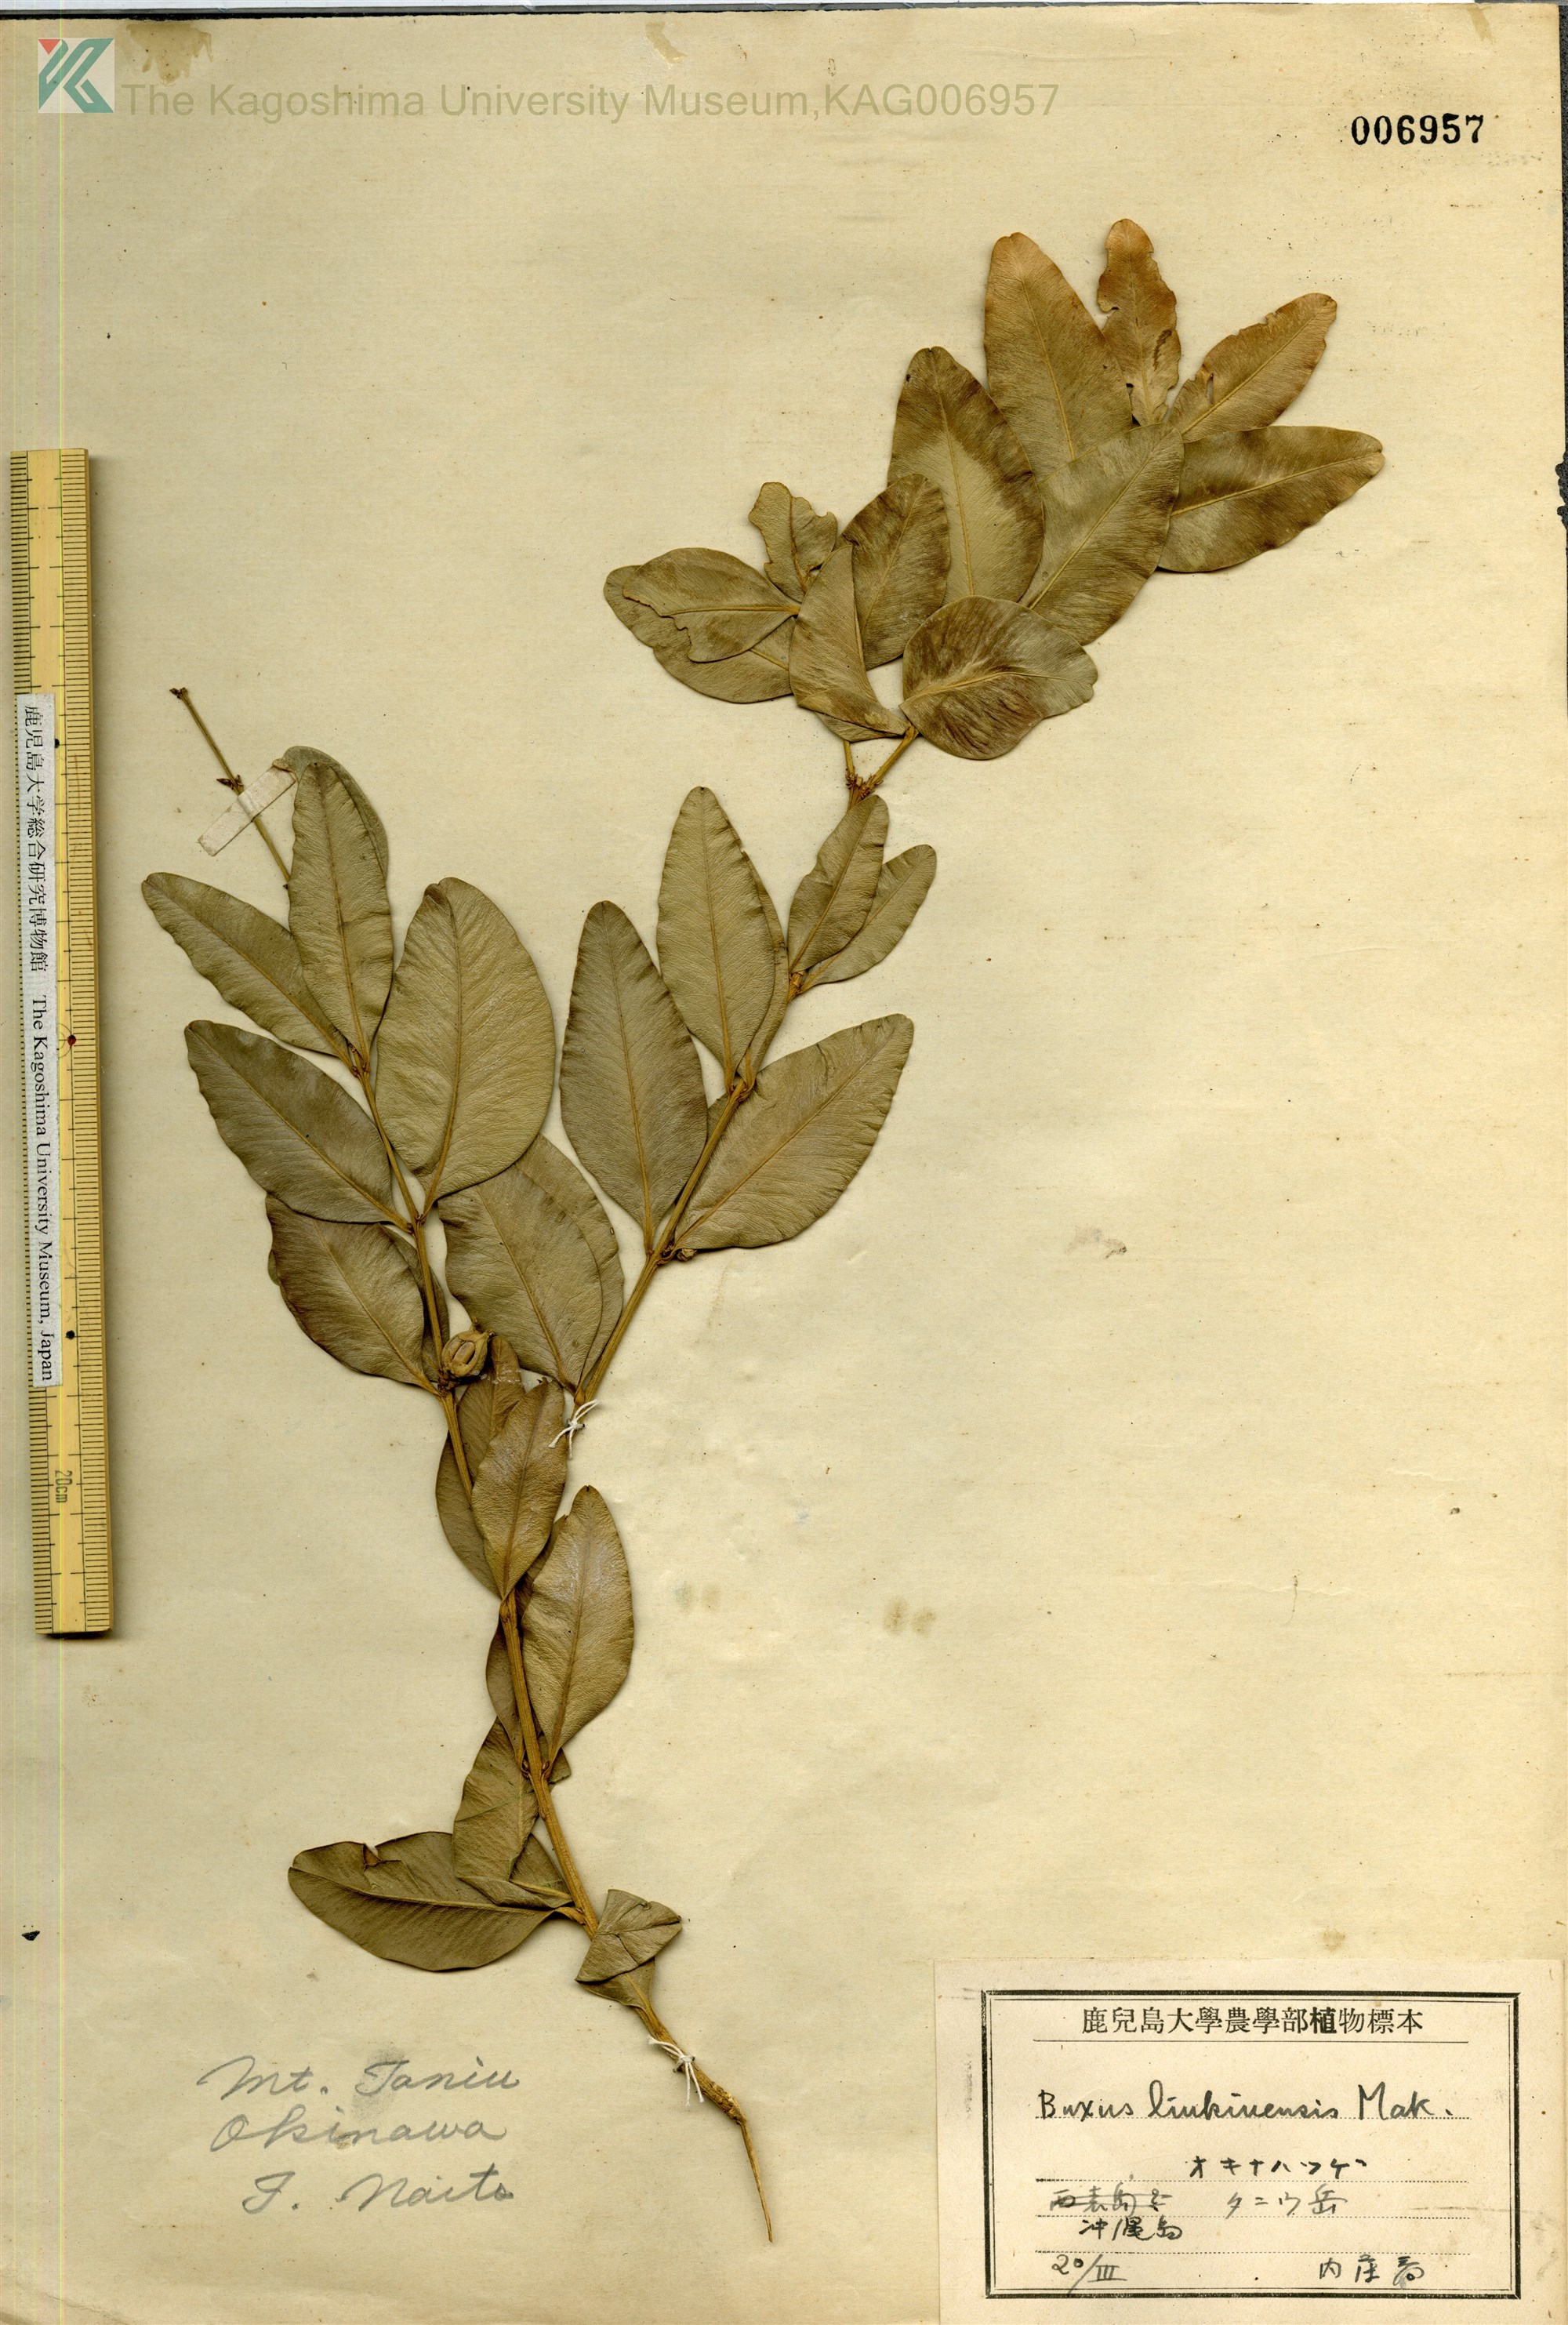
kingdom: Plantae
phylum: Tracheophyta
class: Magnoliopsida
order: Buxales
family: Buxaceae
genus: Buxus
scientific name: Buxus liukiuensis
